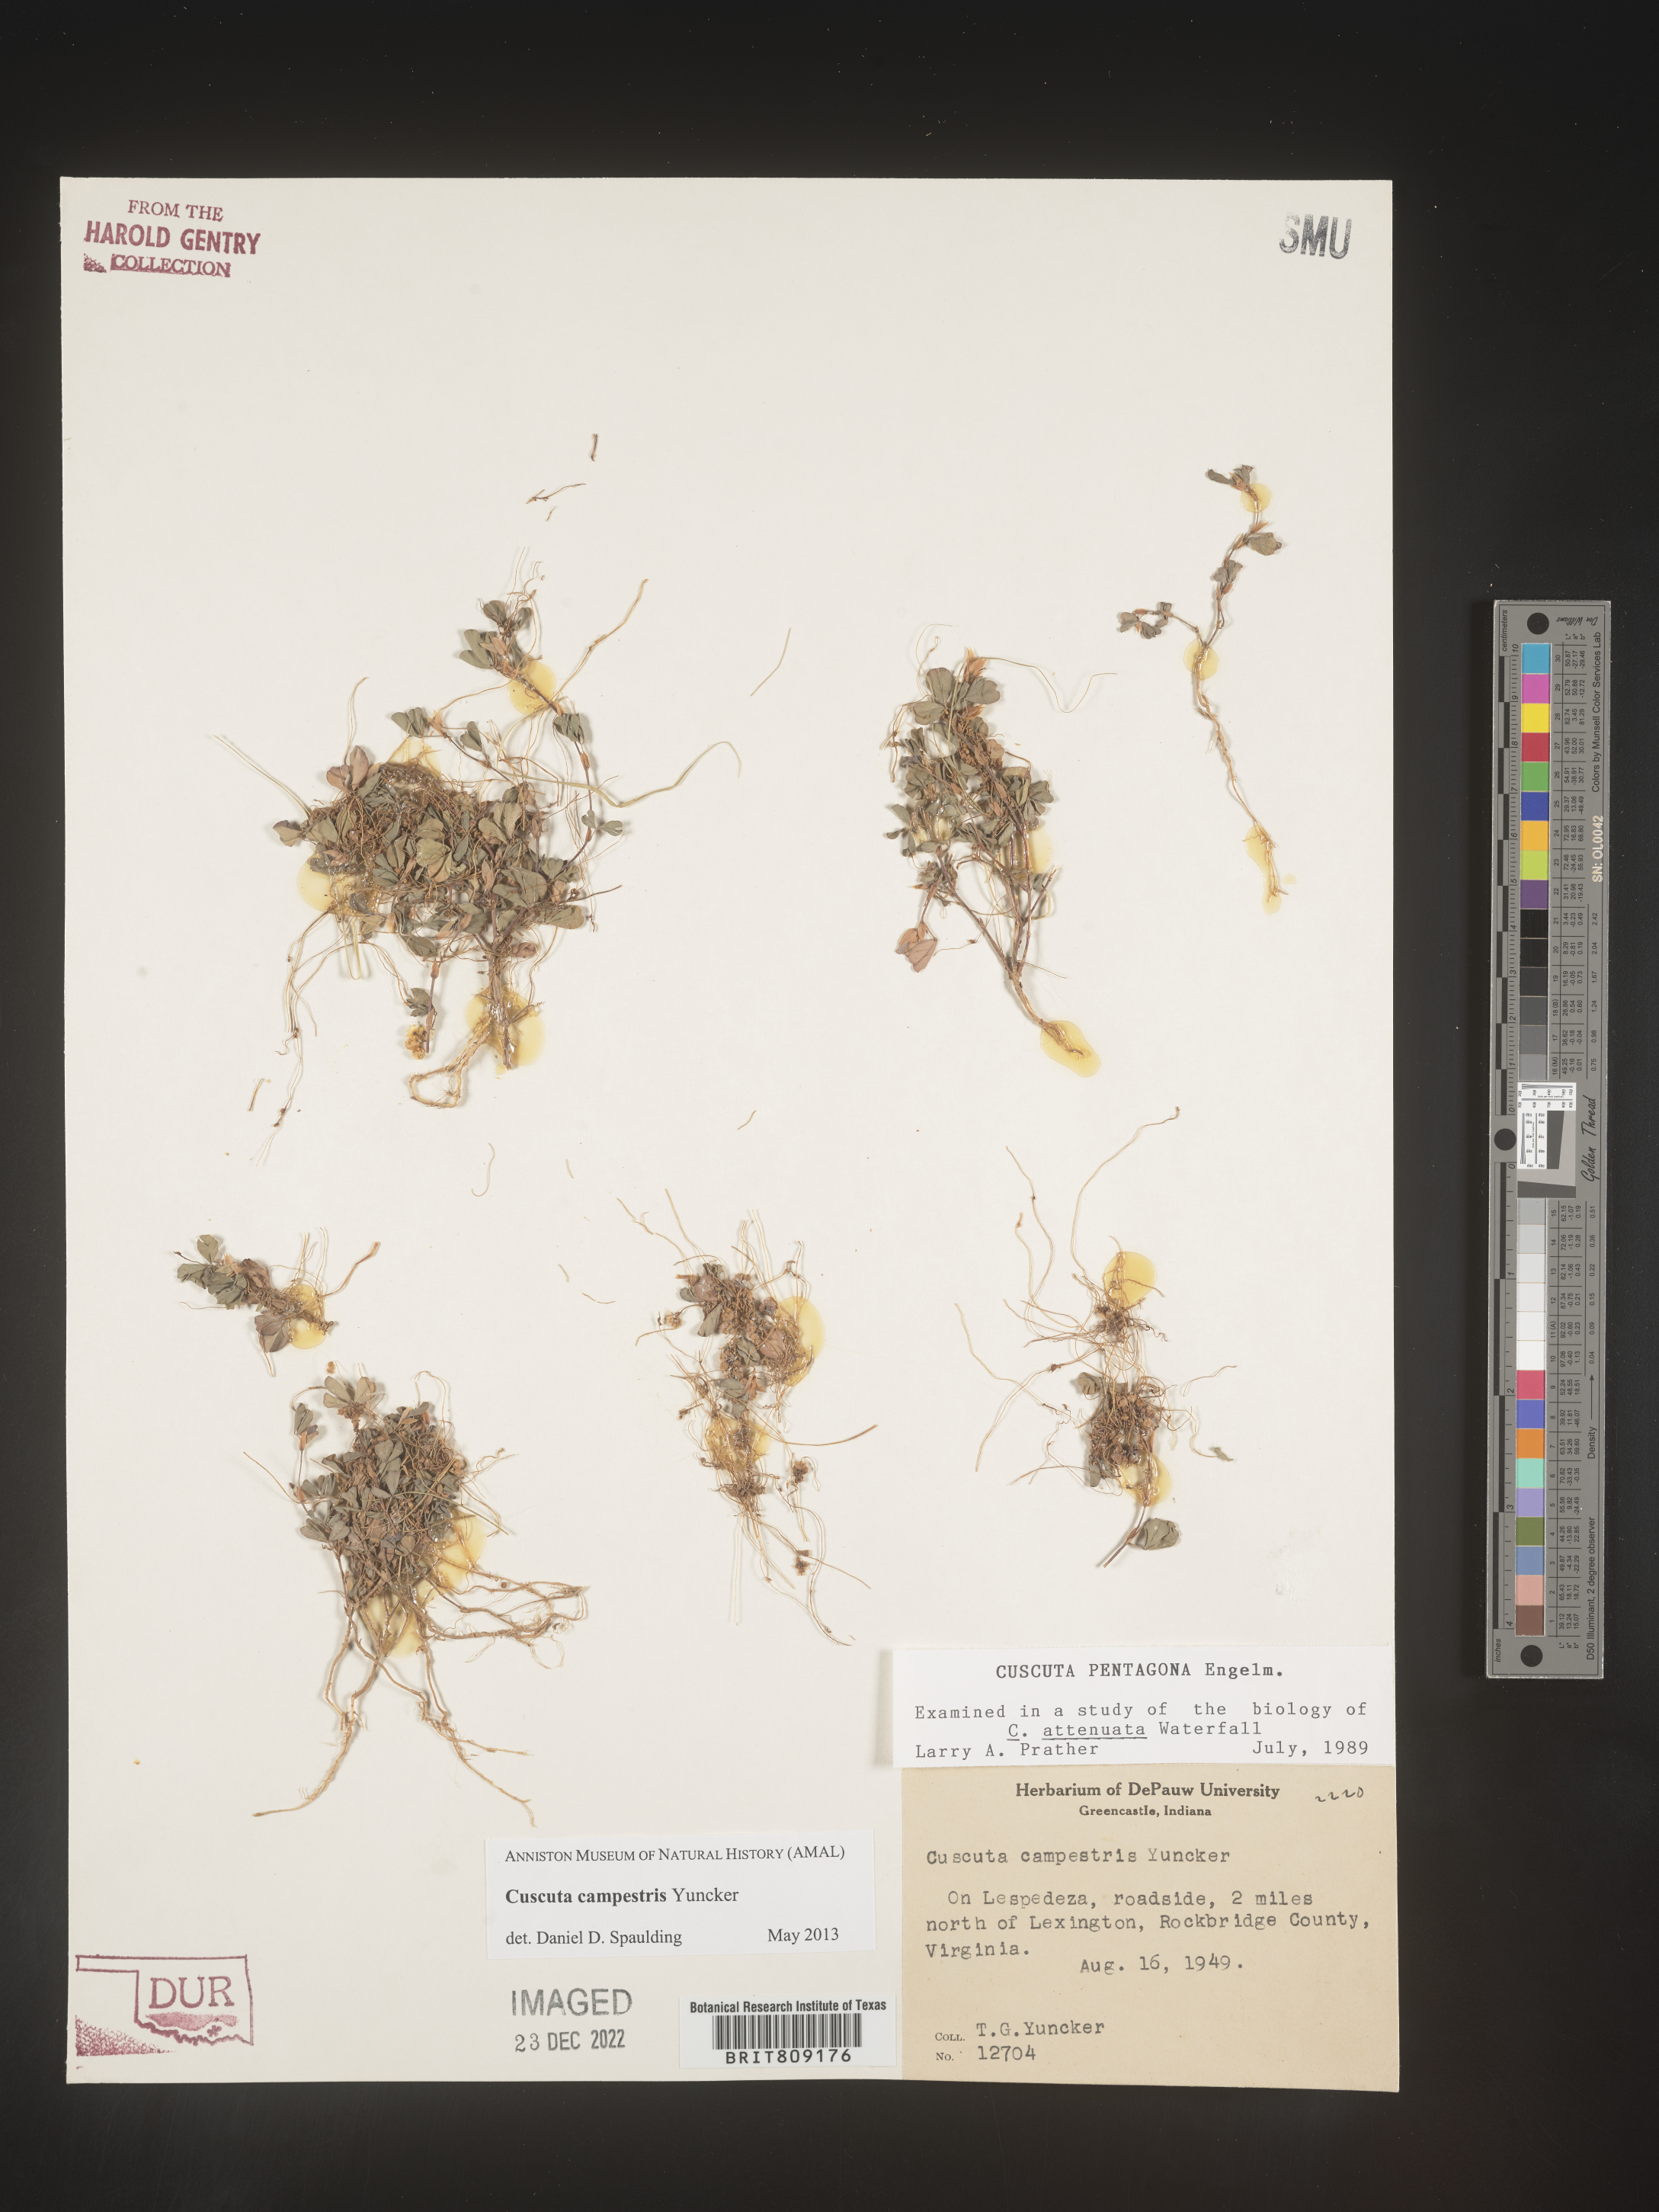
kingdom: Plantae
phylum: Tracheophyta
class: Magnoliopsida
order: Solanales
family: Convolvulaceae
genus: Cuscuta
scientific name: Cuscuta campestris
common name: Yellow dodder
